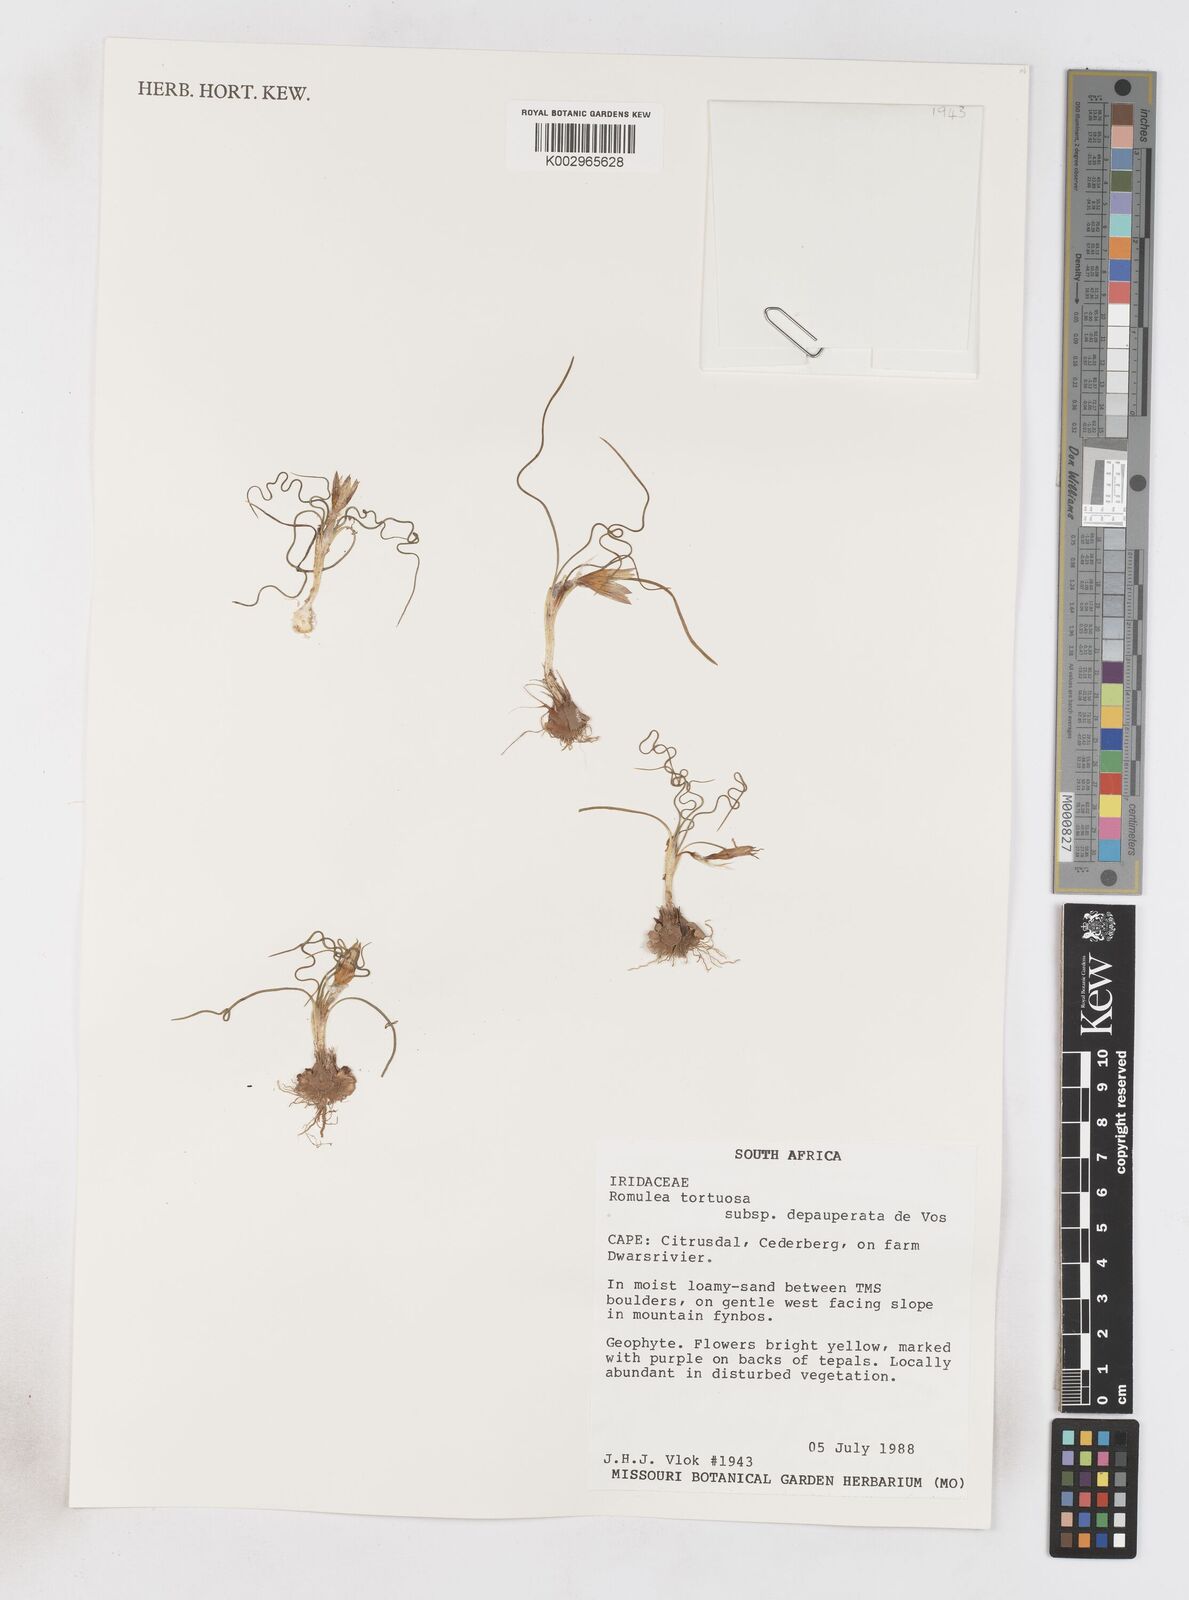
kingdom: Plantae
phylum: Tracheophyta
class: Liliopsida
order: Asparagales
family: Iridaceae
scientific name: Iridaceae
